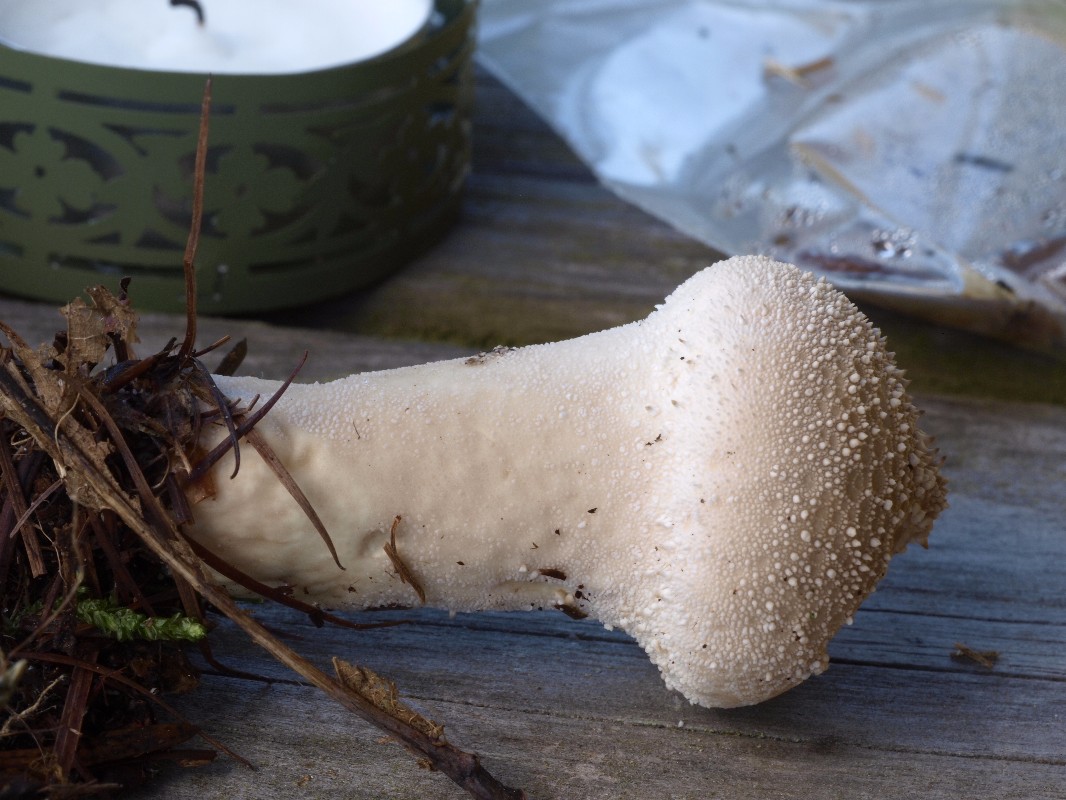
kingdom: Fungi
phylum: Basidiomycota
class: Agaricomycetes
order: Agaricales
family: Lycoperdaceae
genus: Lycoperdon
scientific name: Lycoperdon perlatum
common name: krystal-støvbold
